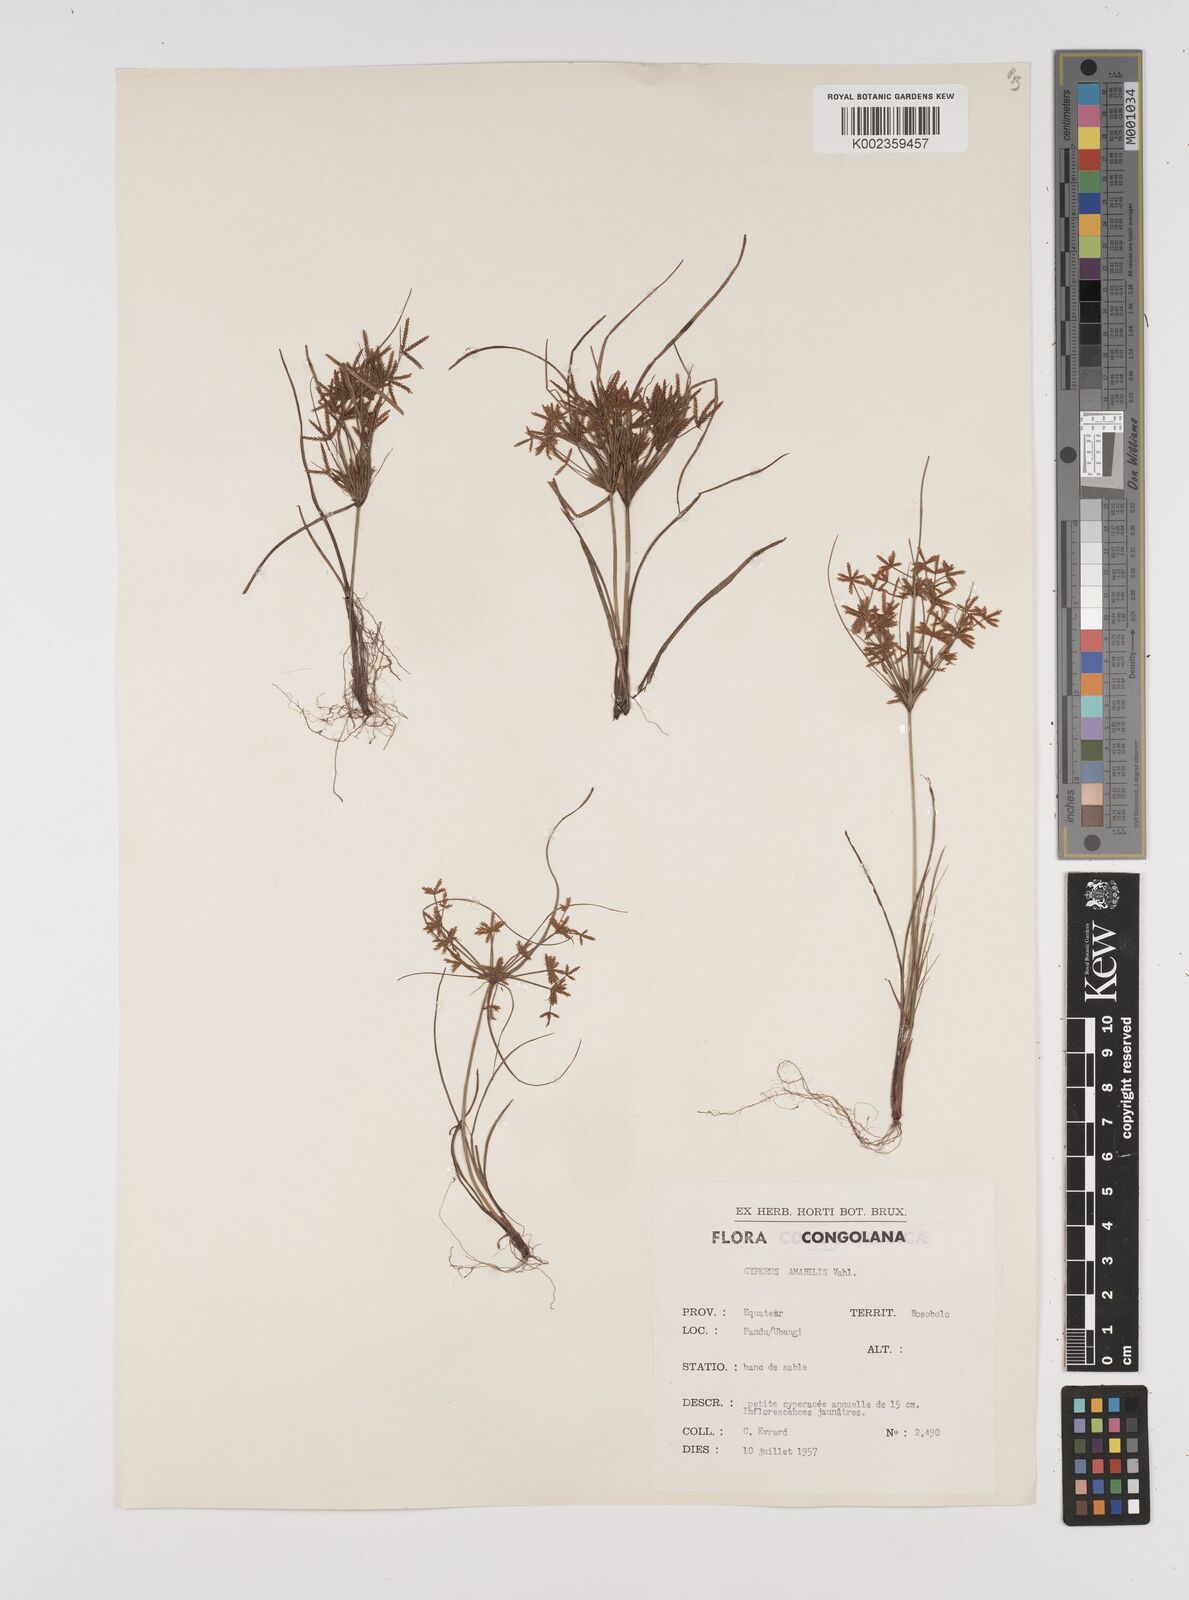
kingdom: Plantae
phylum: Tracheophyta
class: Liliopsida
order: Poales
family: Cyperaceae
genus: Cyperus
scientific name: Cyperus amabilis
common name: Foothill flat sedge
